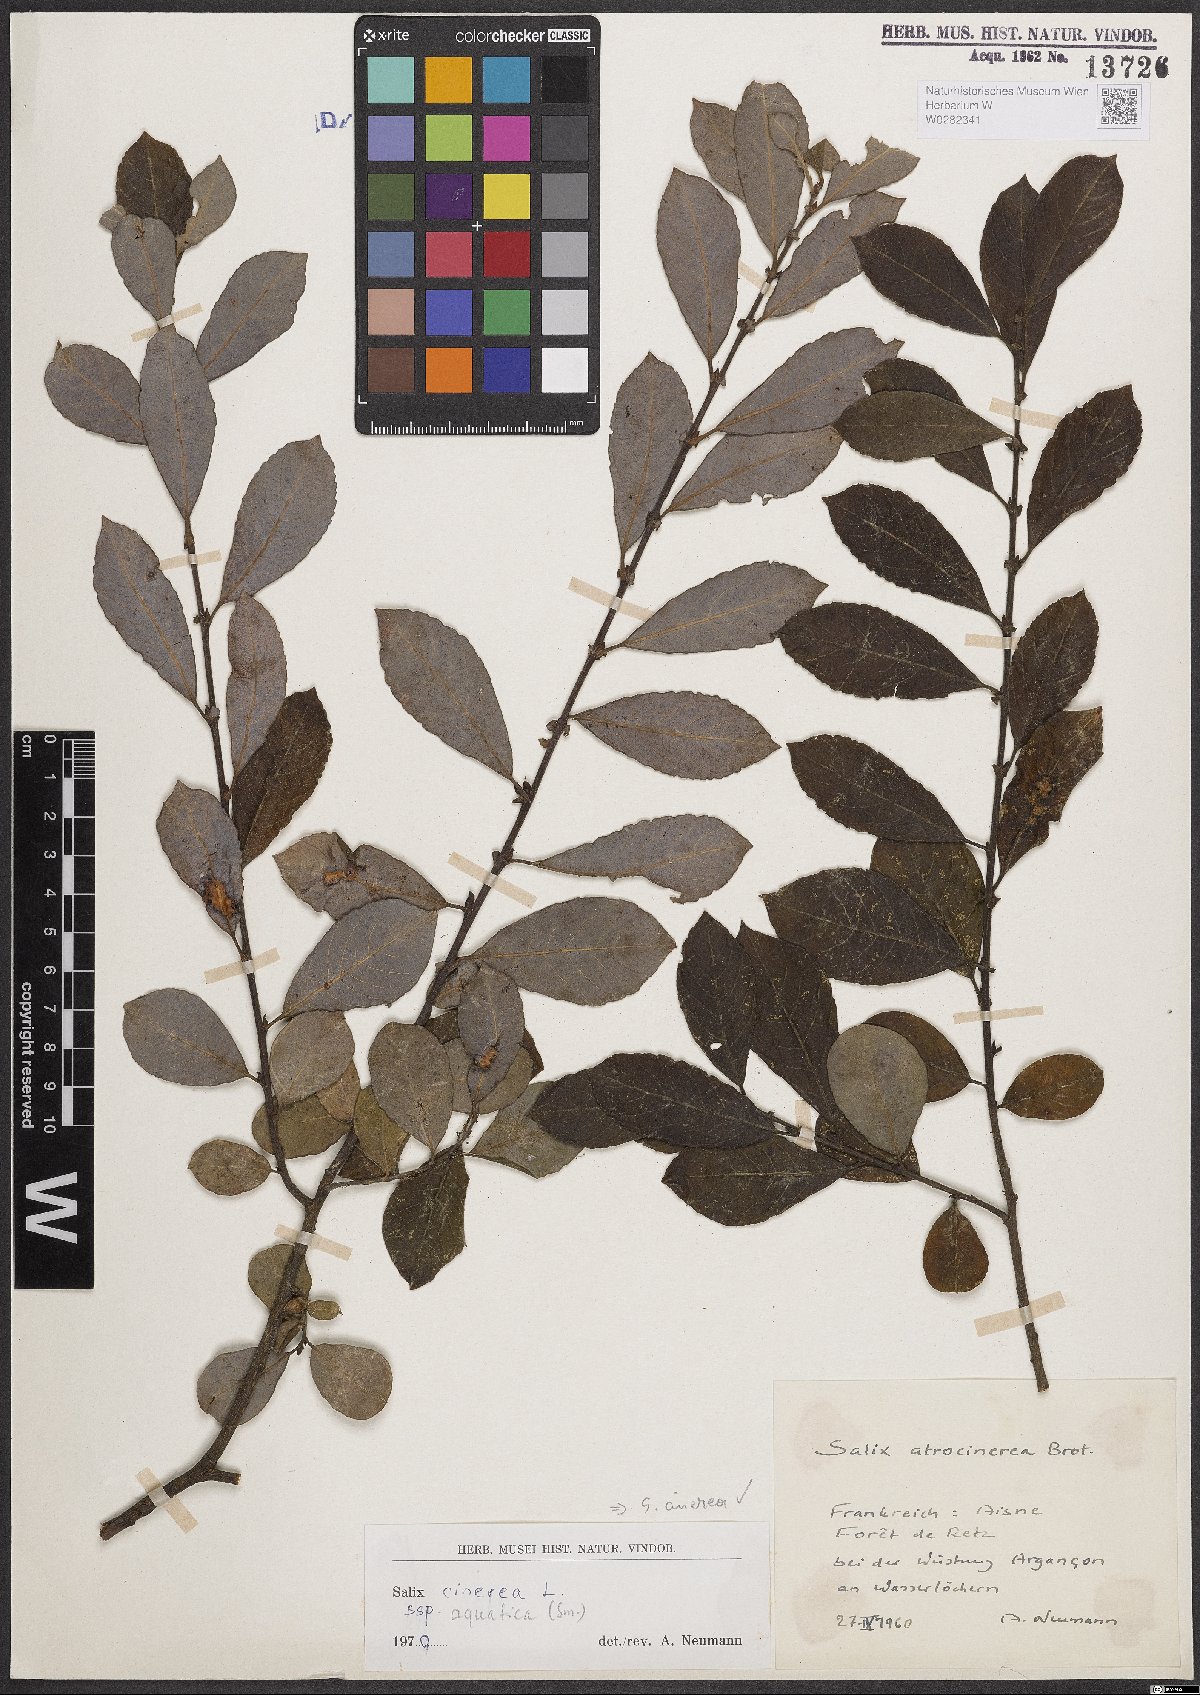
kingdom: Plantae
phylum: Tracheophyta
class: Magnoliopsida
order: Malpighiales
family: Salicaceae
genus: Salix
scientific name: Salix cinerea
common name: Common sallow
